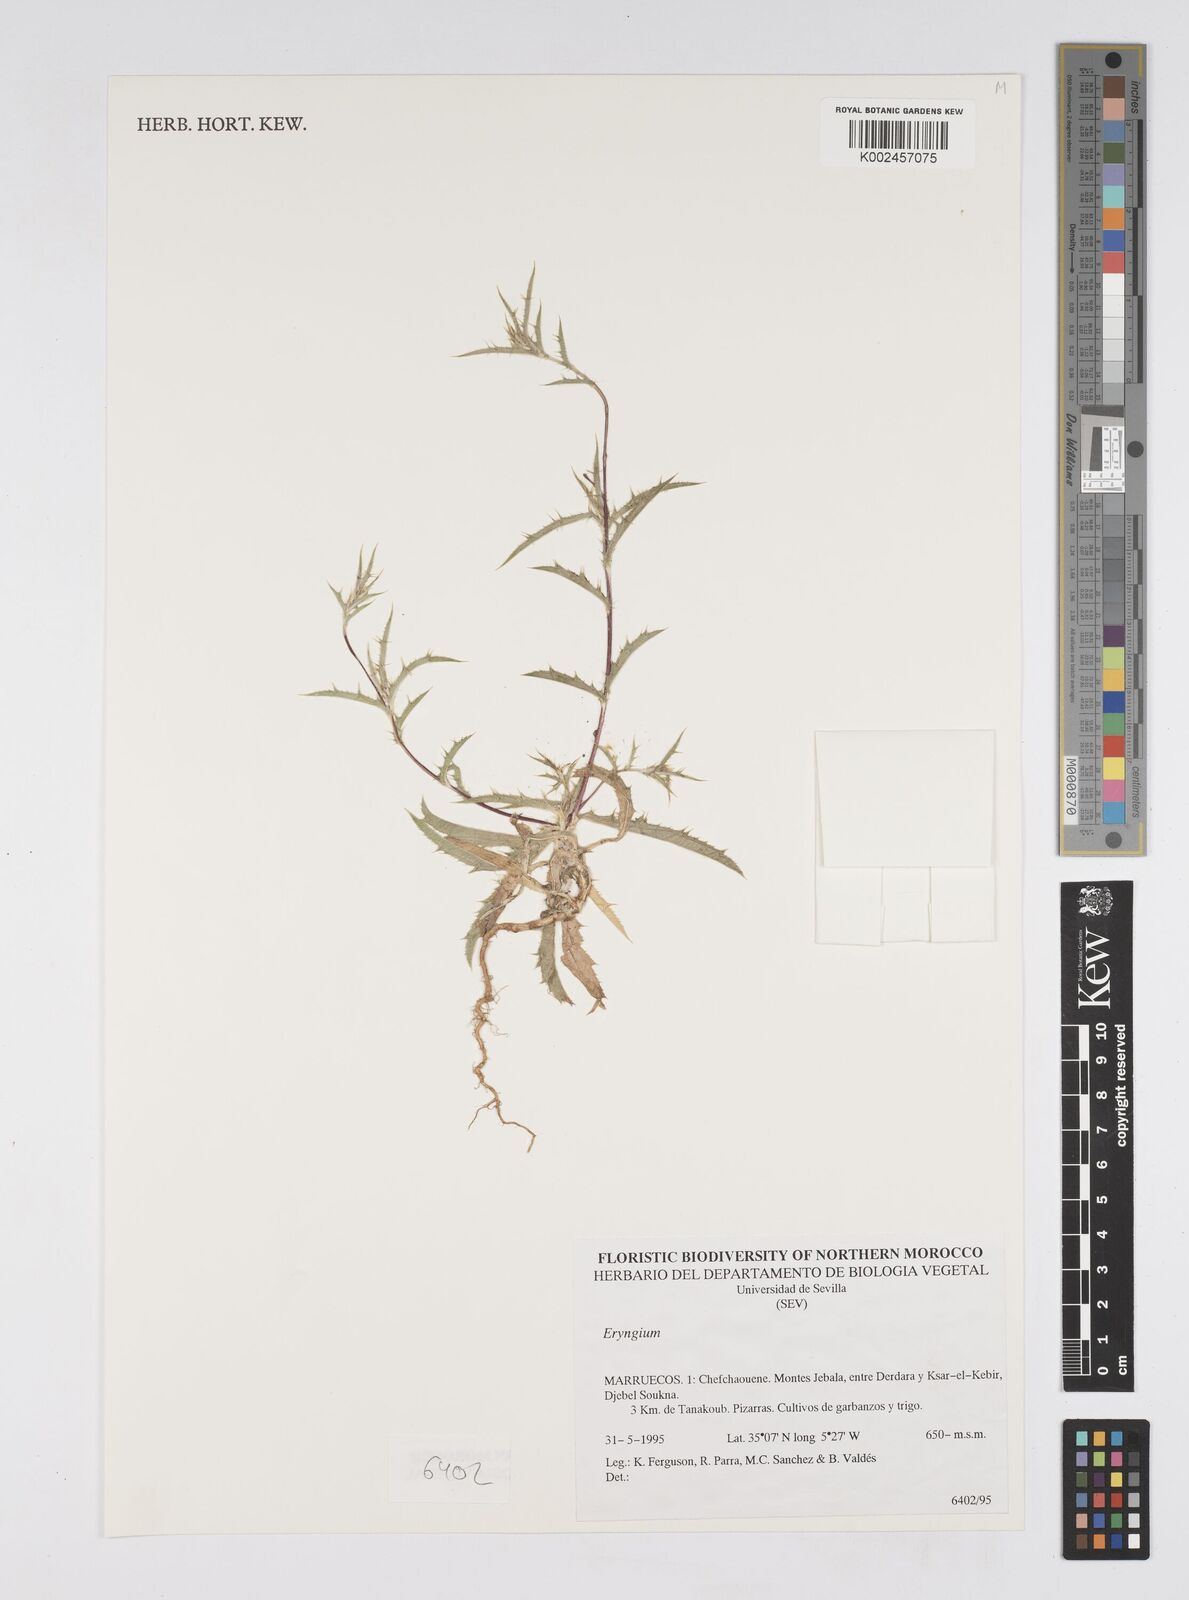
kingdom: Plantae
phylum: Tracheophyta
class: Magnoliopsida
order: Apiales
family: Apiaceae
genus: Eryngium
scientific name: Eryngium
